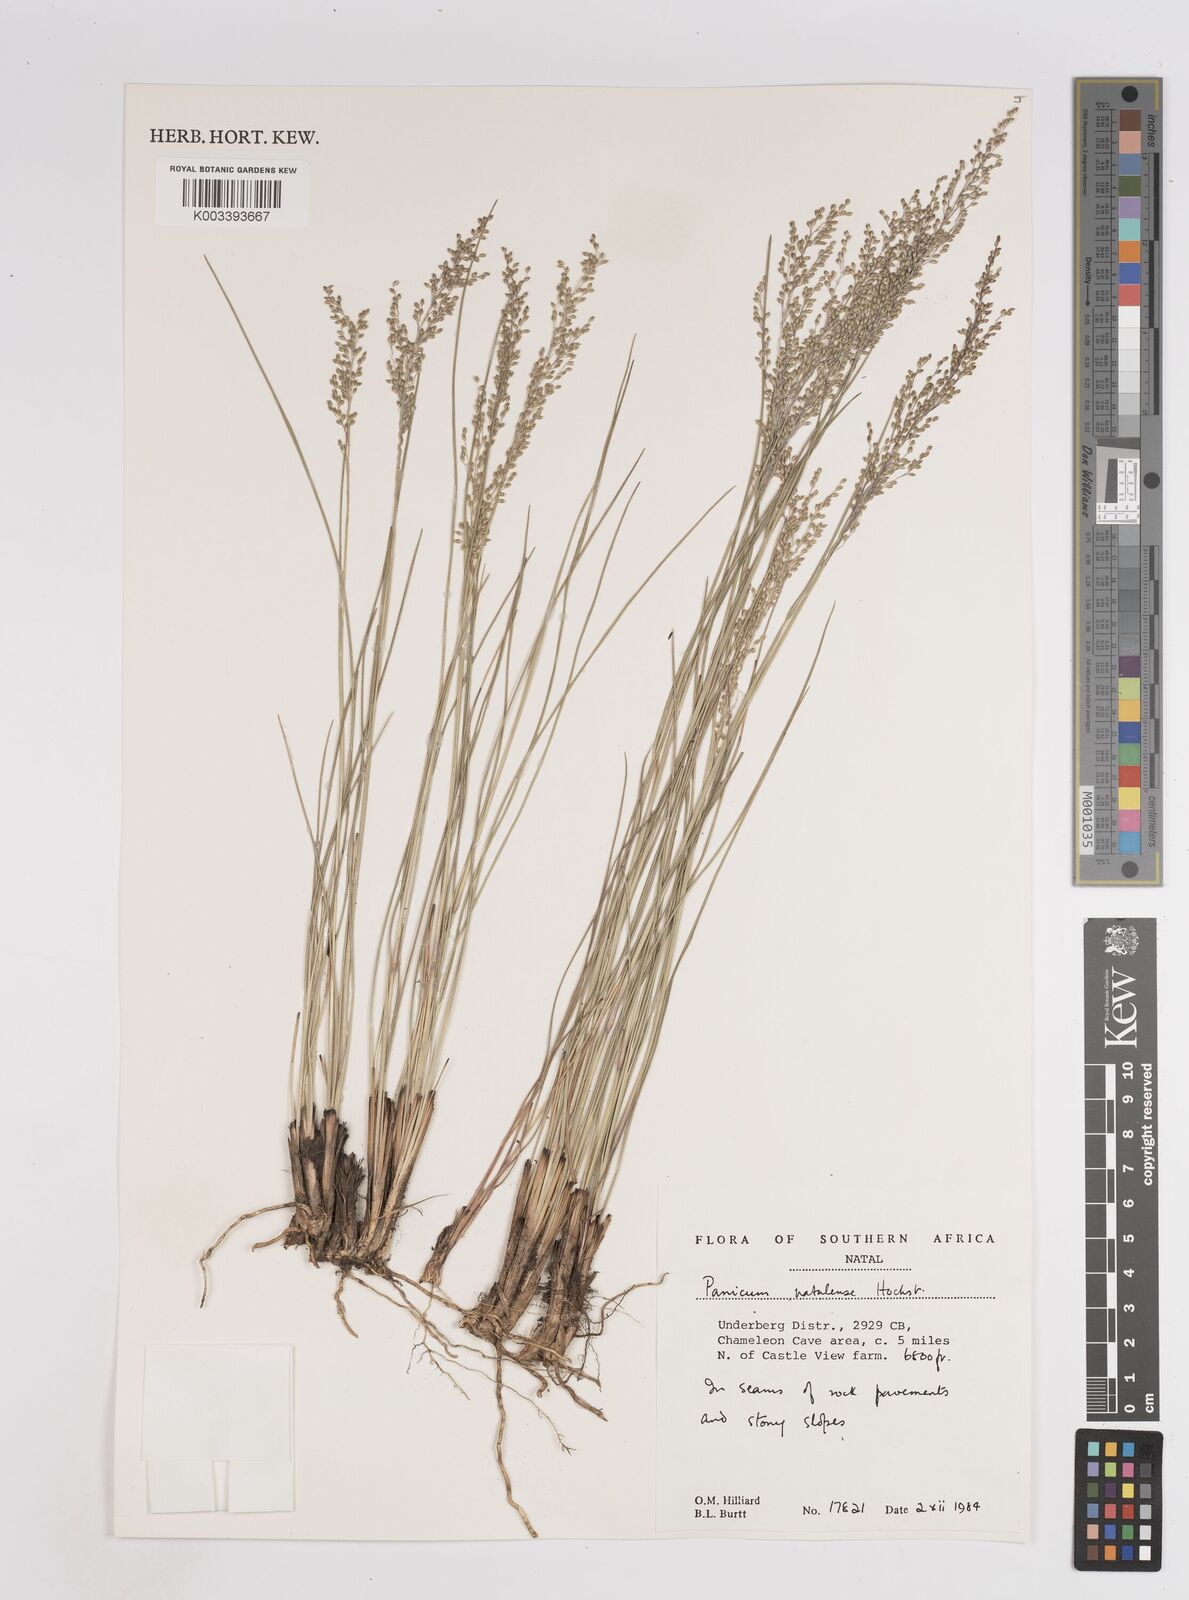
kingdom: Plantae
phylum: Tracheophyta
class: Liliopsida
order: Poales
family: Poaceae
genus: Trichanthecium
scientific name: Trichanthecium natalense
